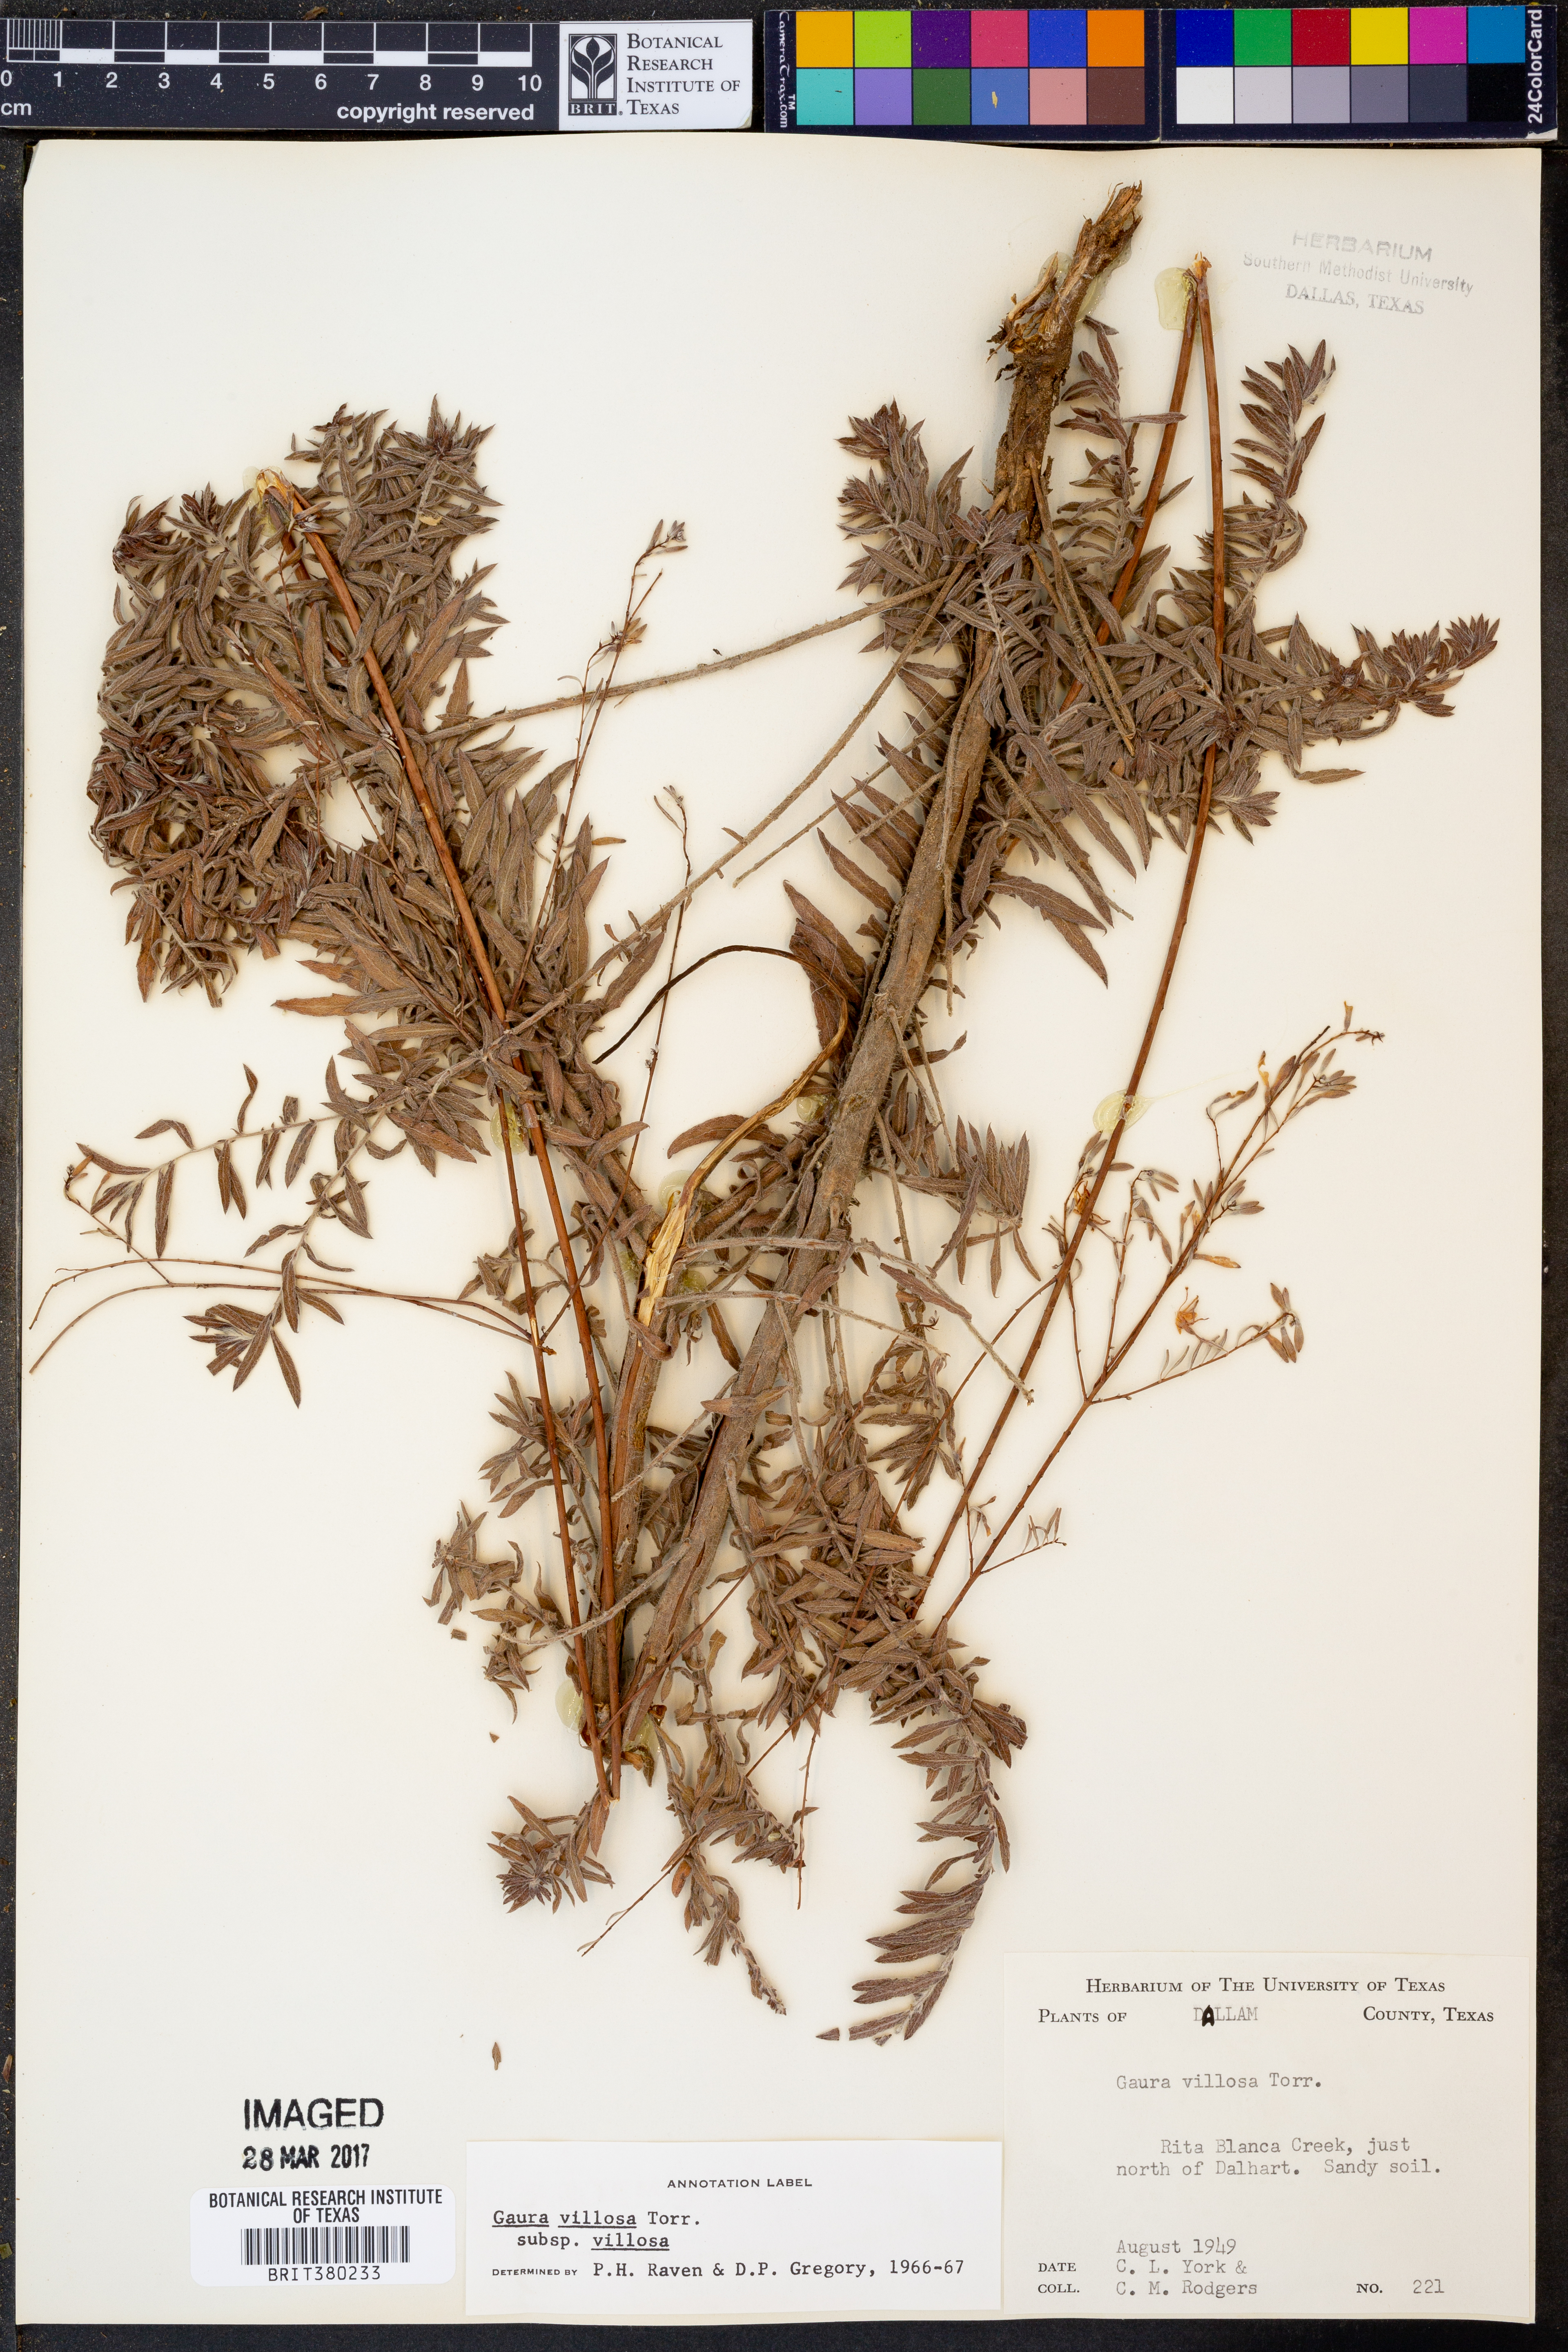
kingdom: Plantae
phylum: Tracheophyta
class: Magnoliopsida
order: Myrtales
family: Onagraceae
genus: Oenothera
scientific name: Oenothera cinerea
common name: Woolly beeblossom
